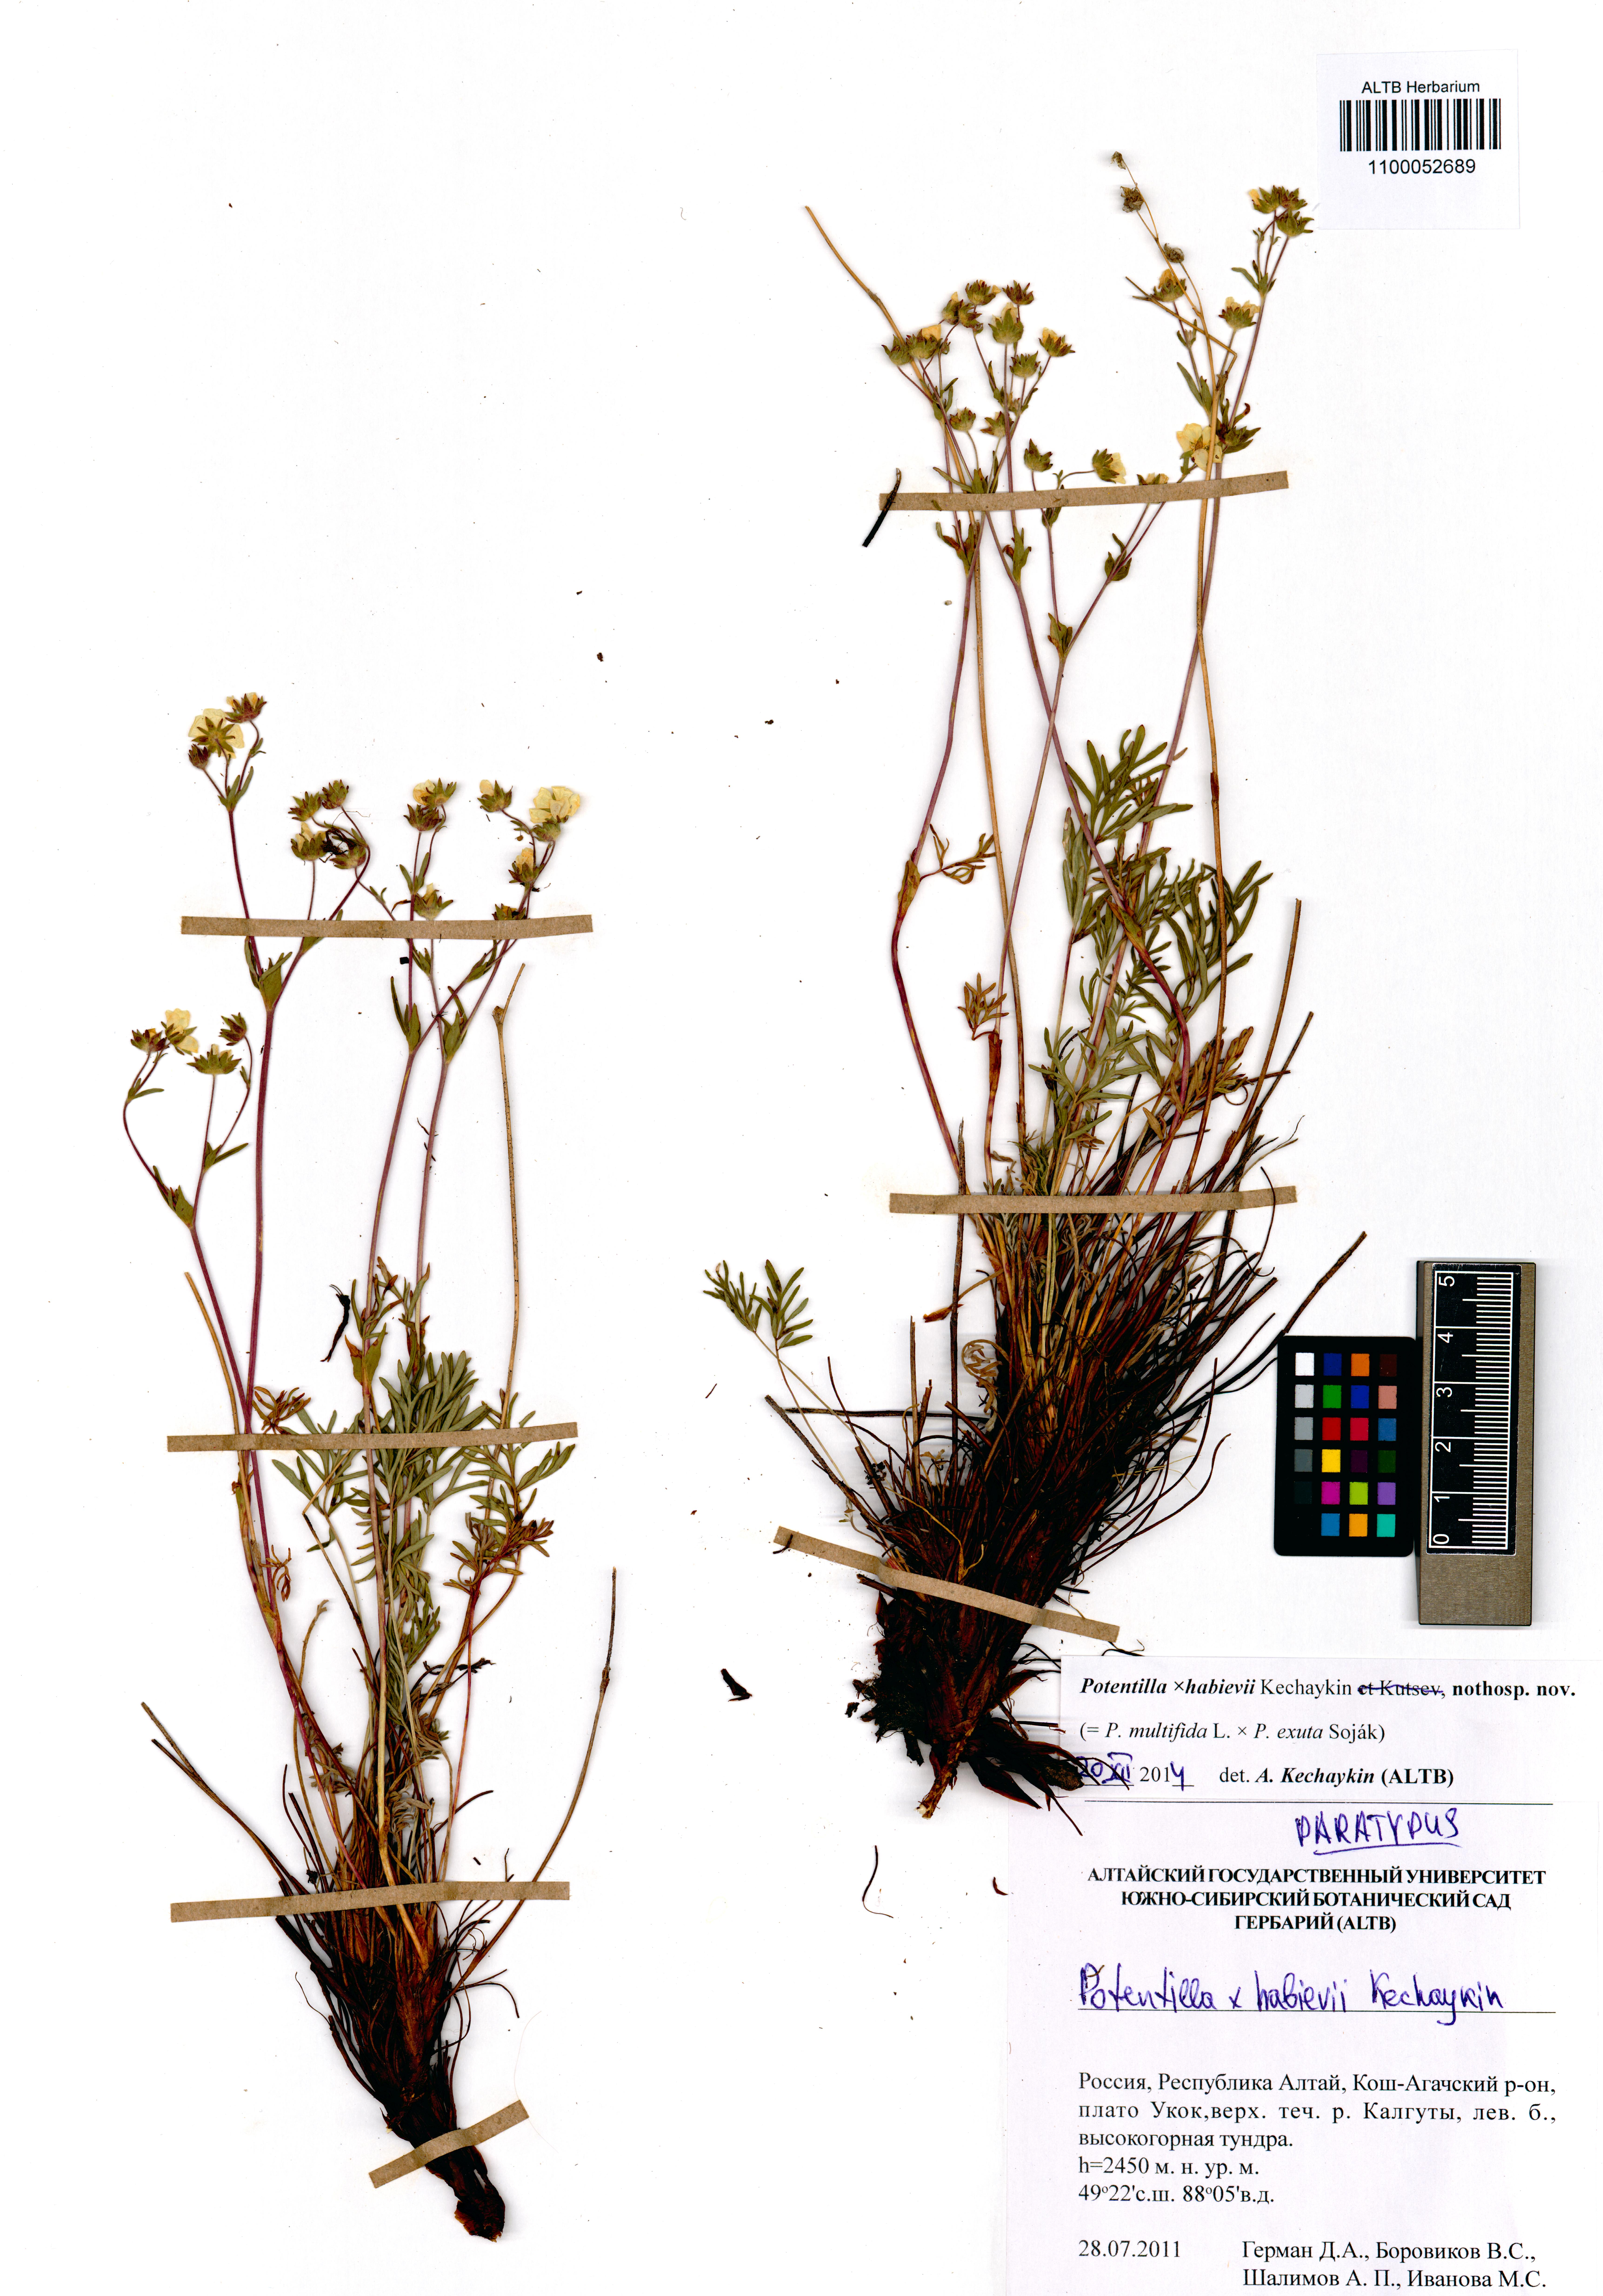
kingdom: Plantae
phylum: Tracheophyta
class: Magnoliopsida
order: Rosales
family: Rosaceae
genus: Potentilla
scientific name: Potentilla habievii
